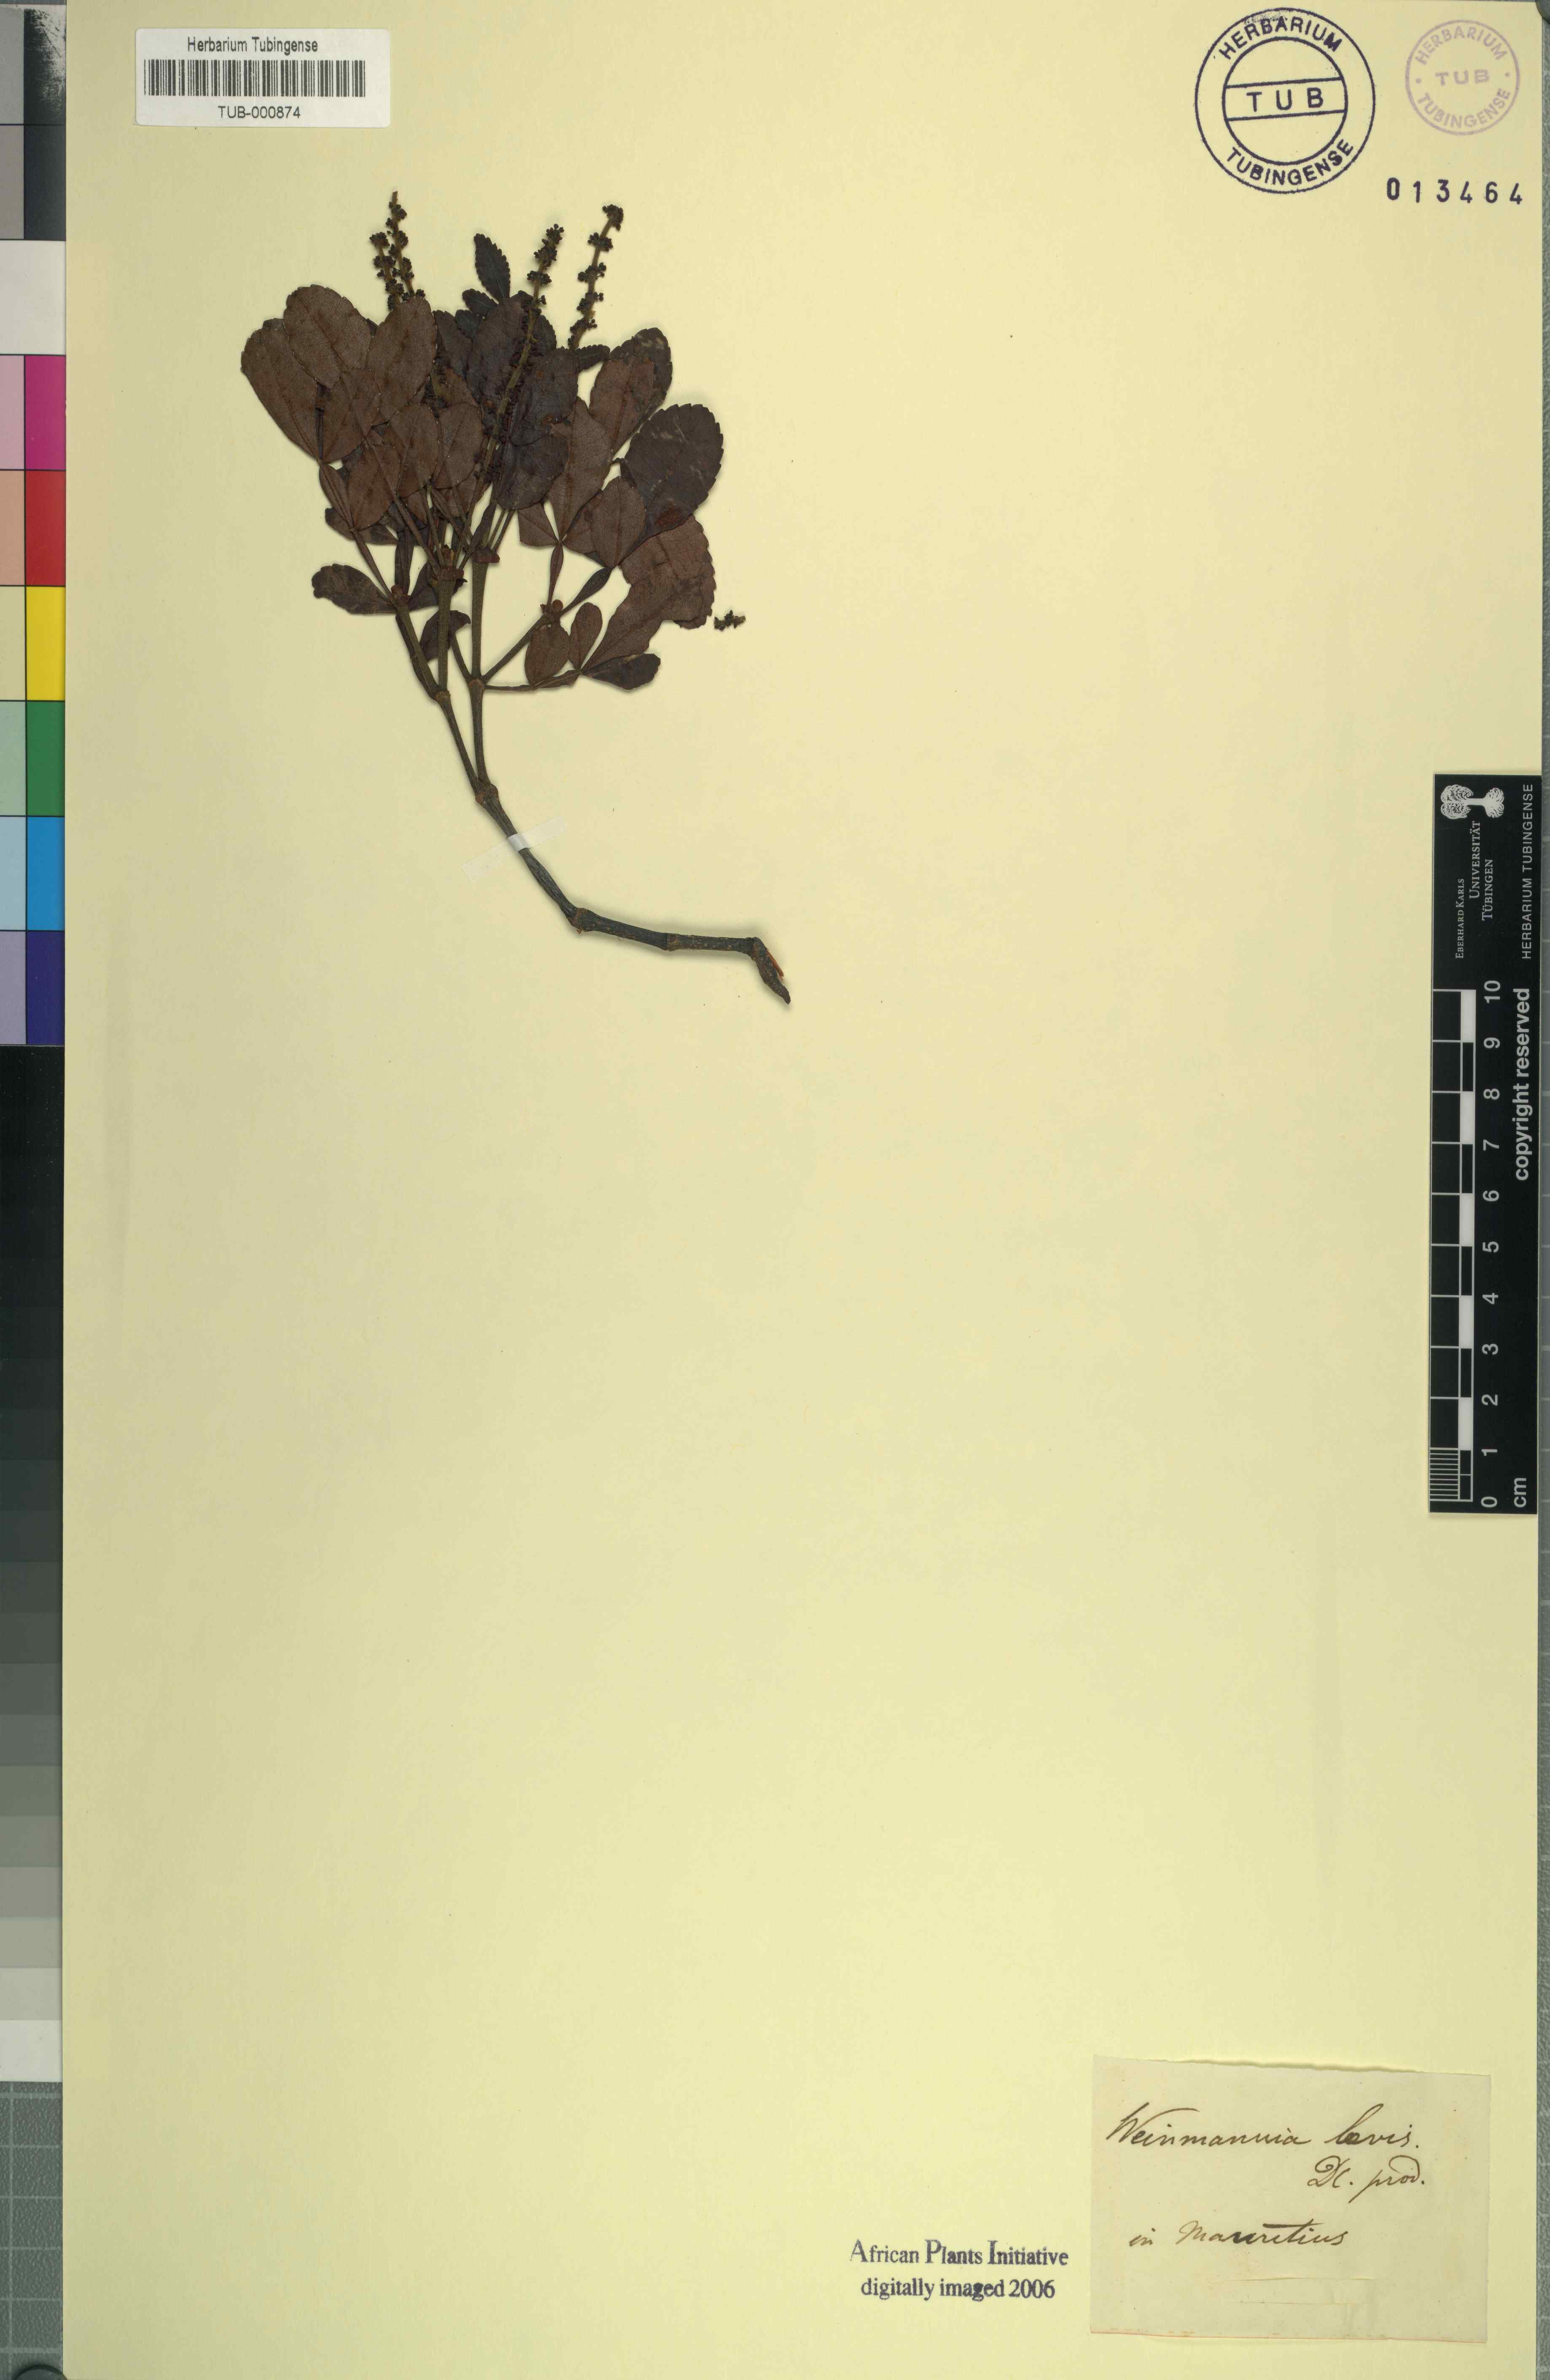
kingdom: Plantae
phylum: Tracheophyta
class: Magnoliopsida
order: Oxalidales
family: Cunoniaceae
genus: Weinmannia
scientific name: Weinmannia
